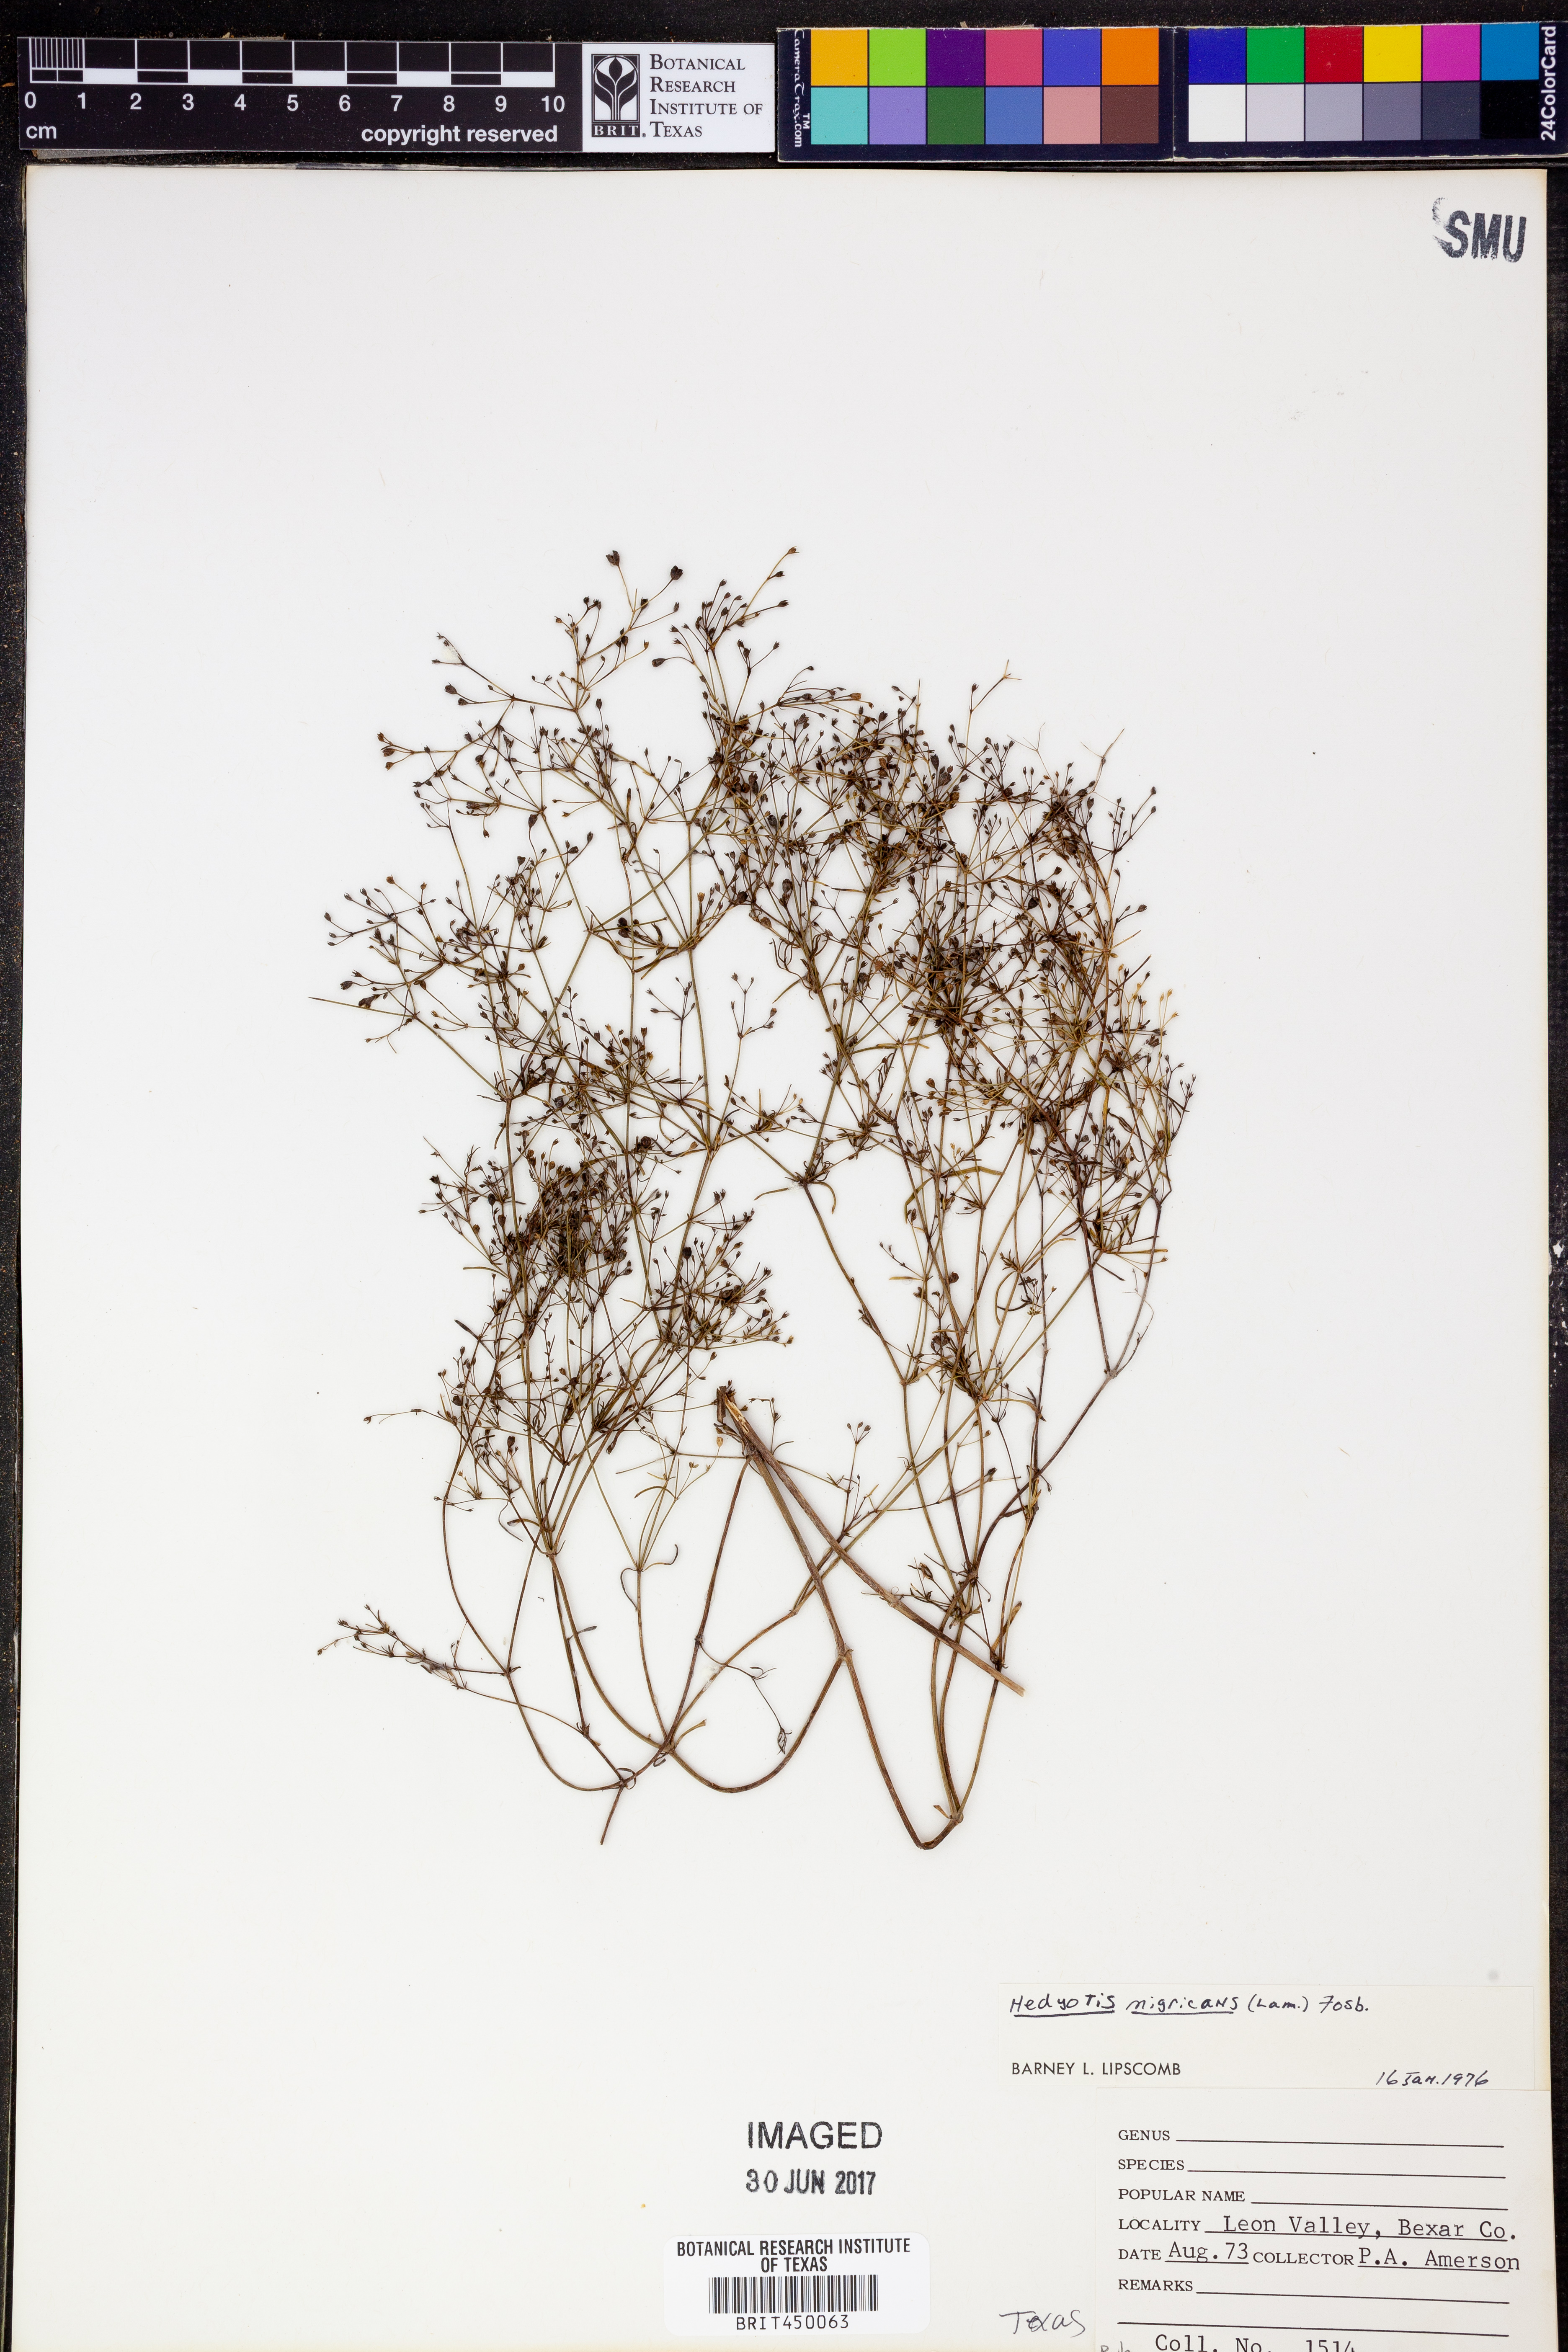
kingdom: Plantae
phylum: Tracheophyta
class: Magnoliopsida
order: Gentianales
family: Rubiaceae
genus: Stenaria
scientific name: Stenaria nigricans
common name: Diamondflowers
